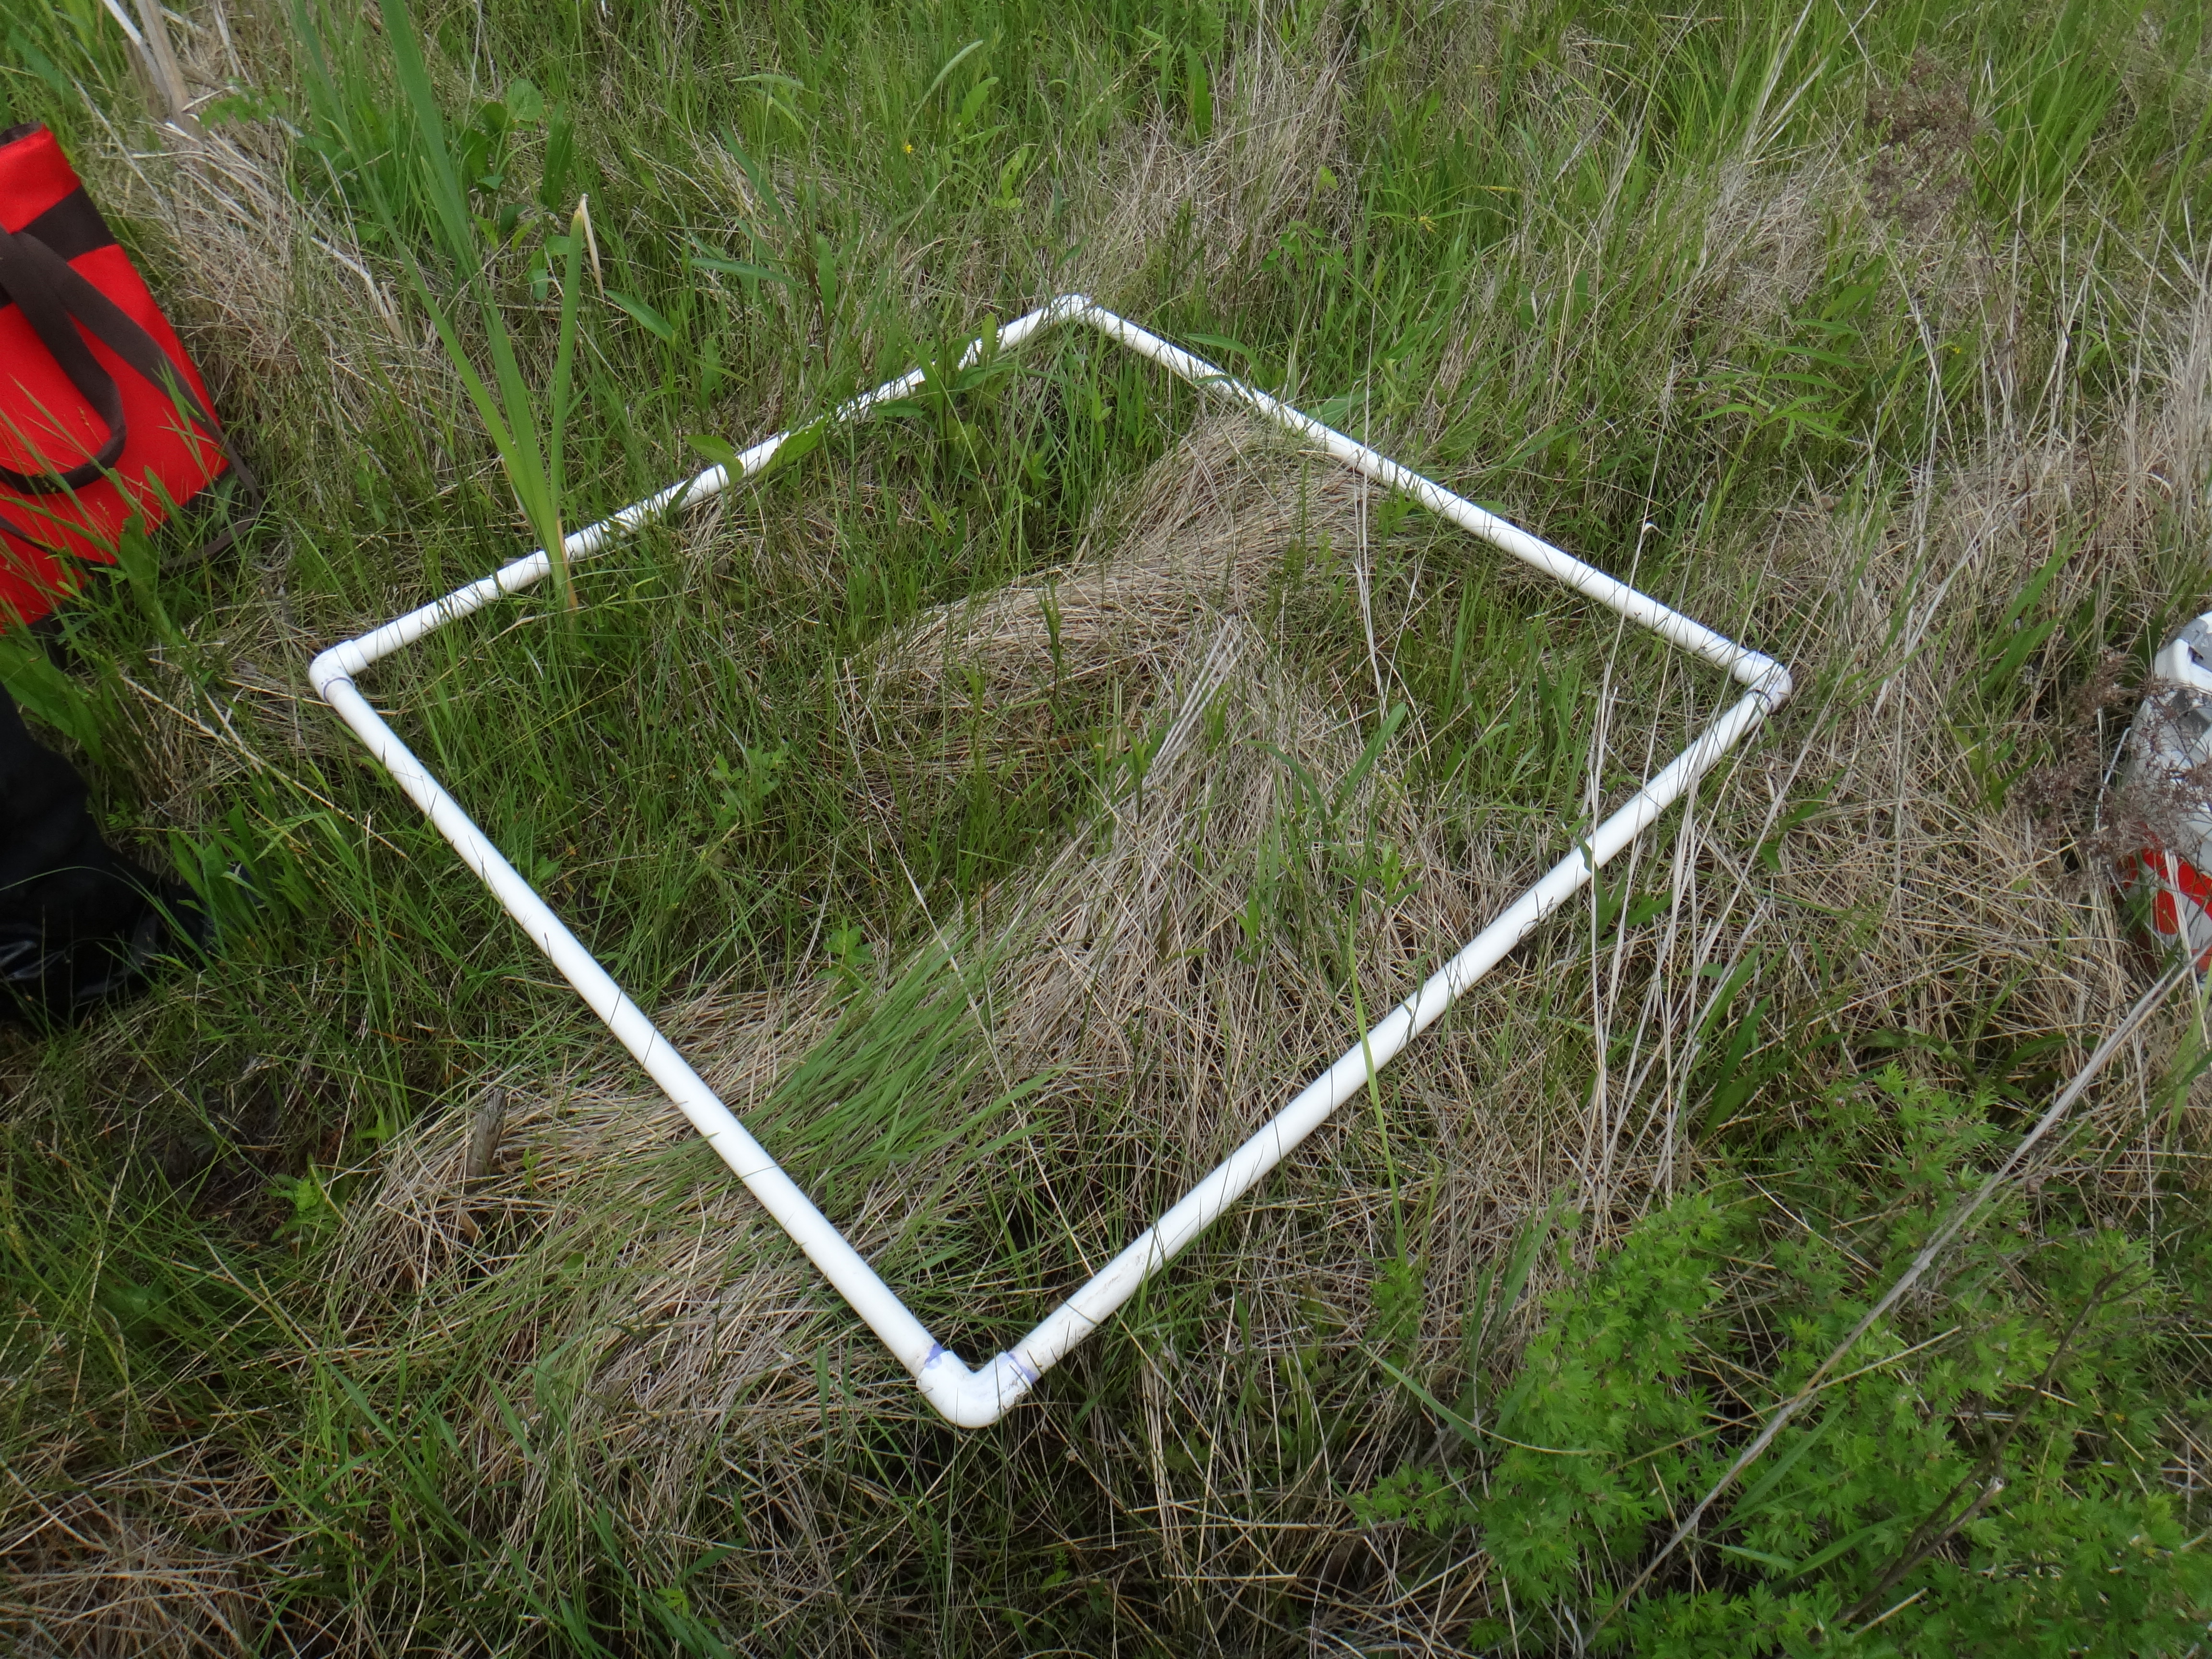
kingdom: Plantae
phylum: Tracheophyta
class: Magnoliopsida
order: Rosales
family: Rosaceae
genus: Dasiphora
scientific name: Dasiphora fruticosa
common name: Shrubby cinquefoil
